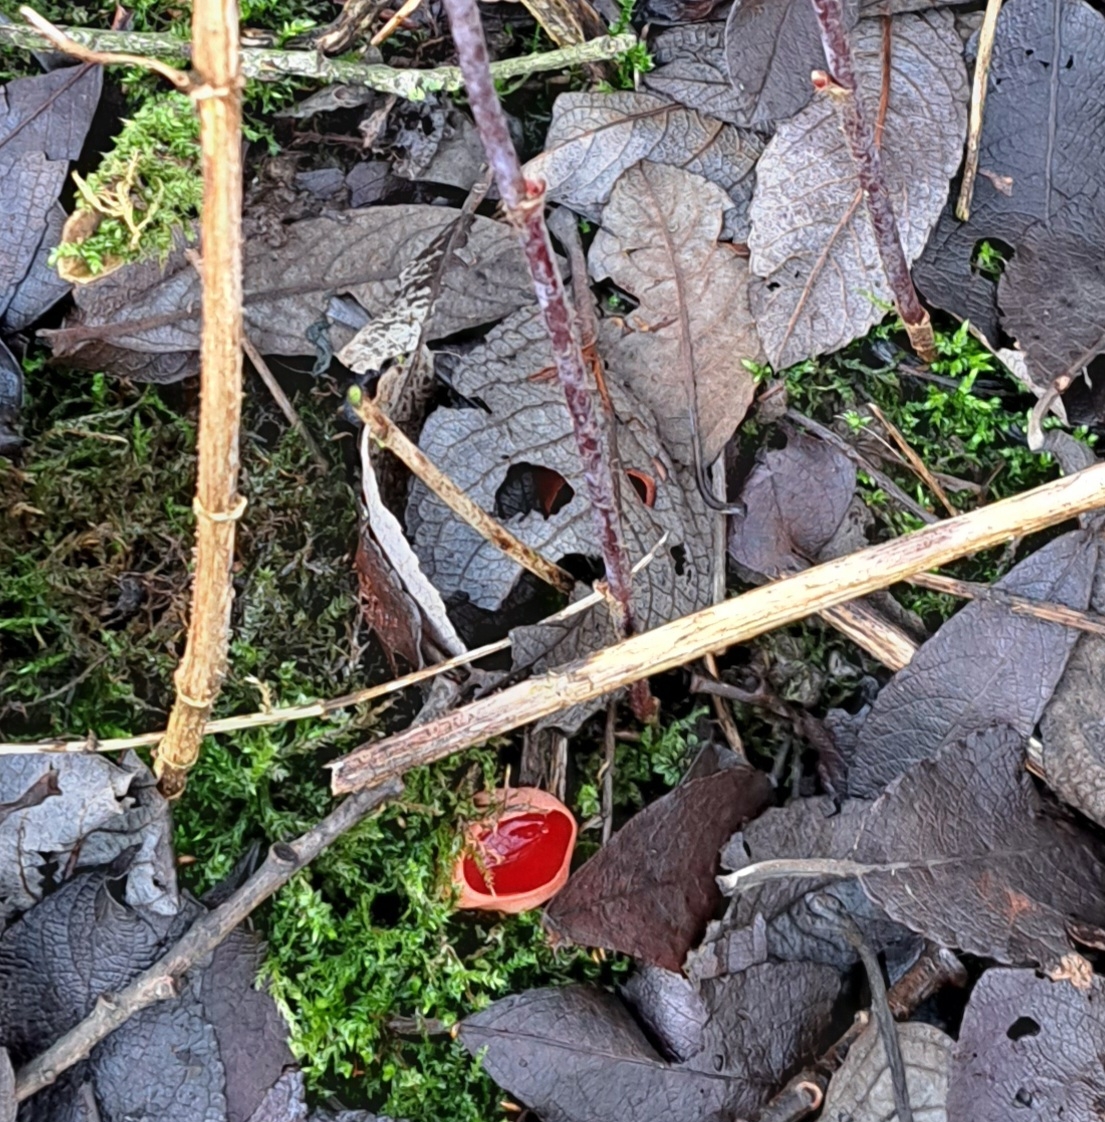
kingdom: Fungi
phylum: Ascomycota
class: Pezizomycetes
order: Pezizales
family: Sarcoscyphaceae
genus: Sarcoscypha
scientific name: Sarcoscypha austriaca
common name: krølhåret pragtbæger
